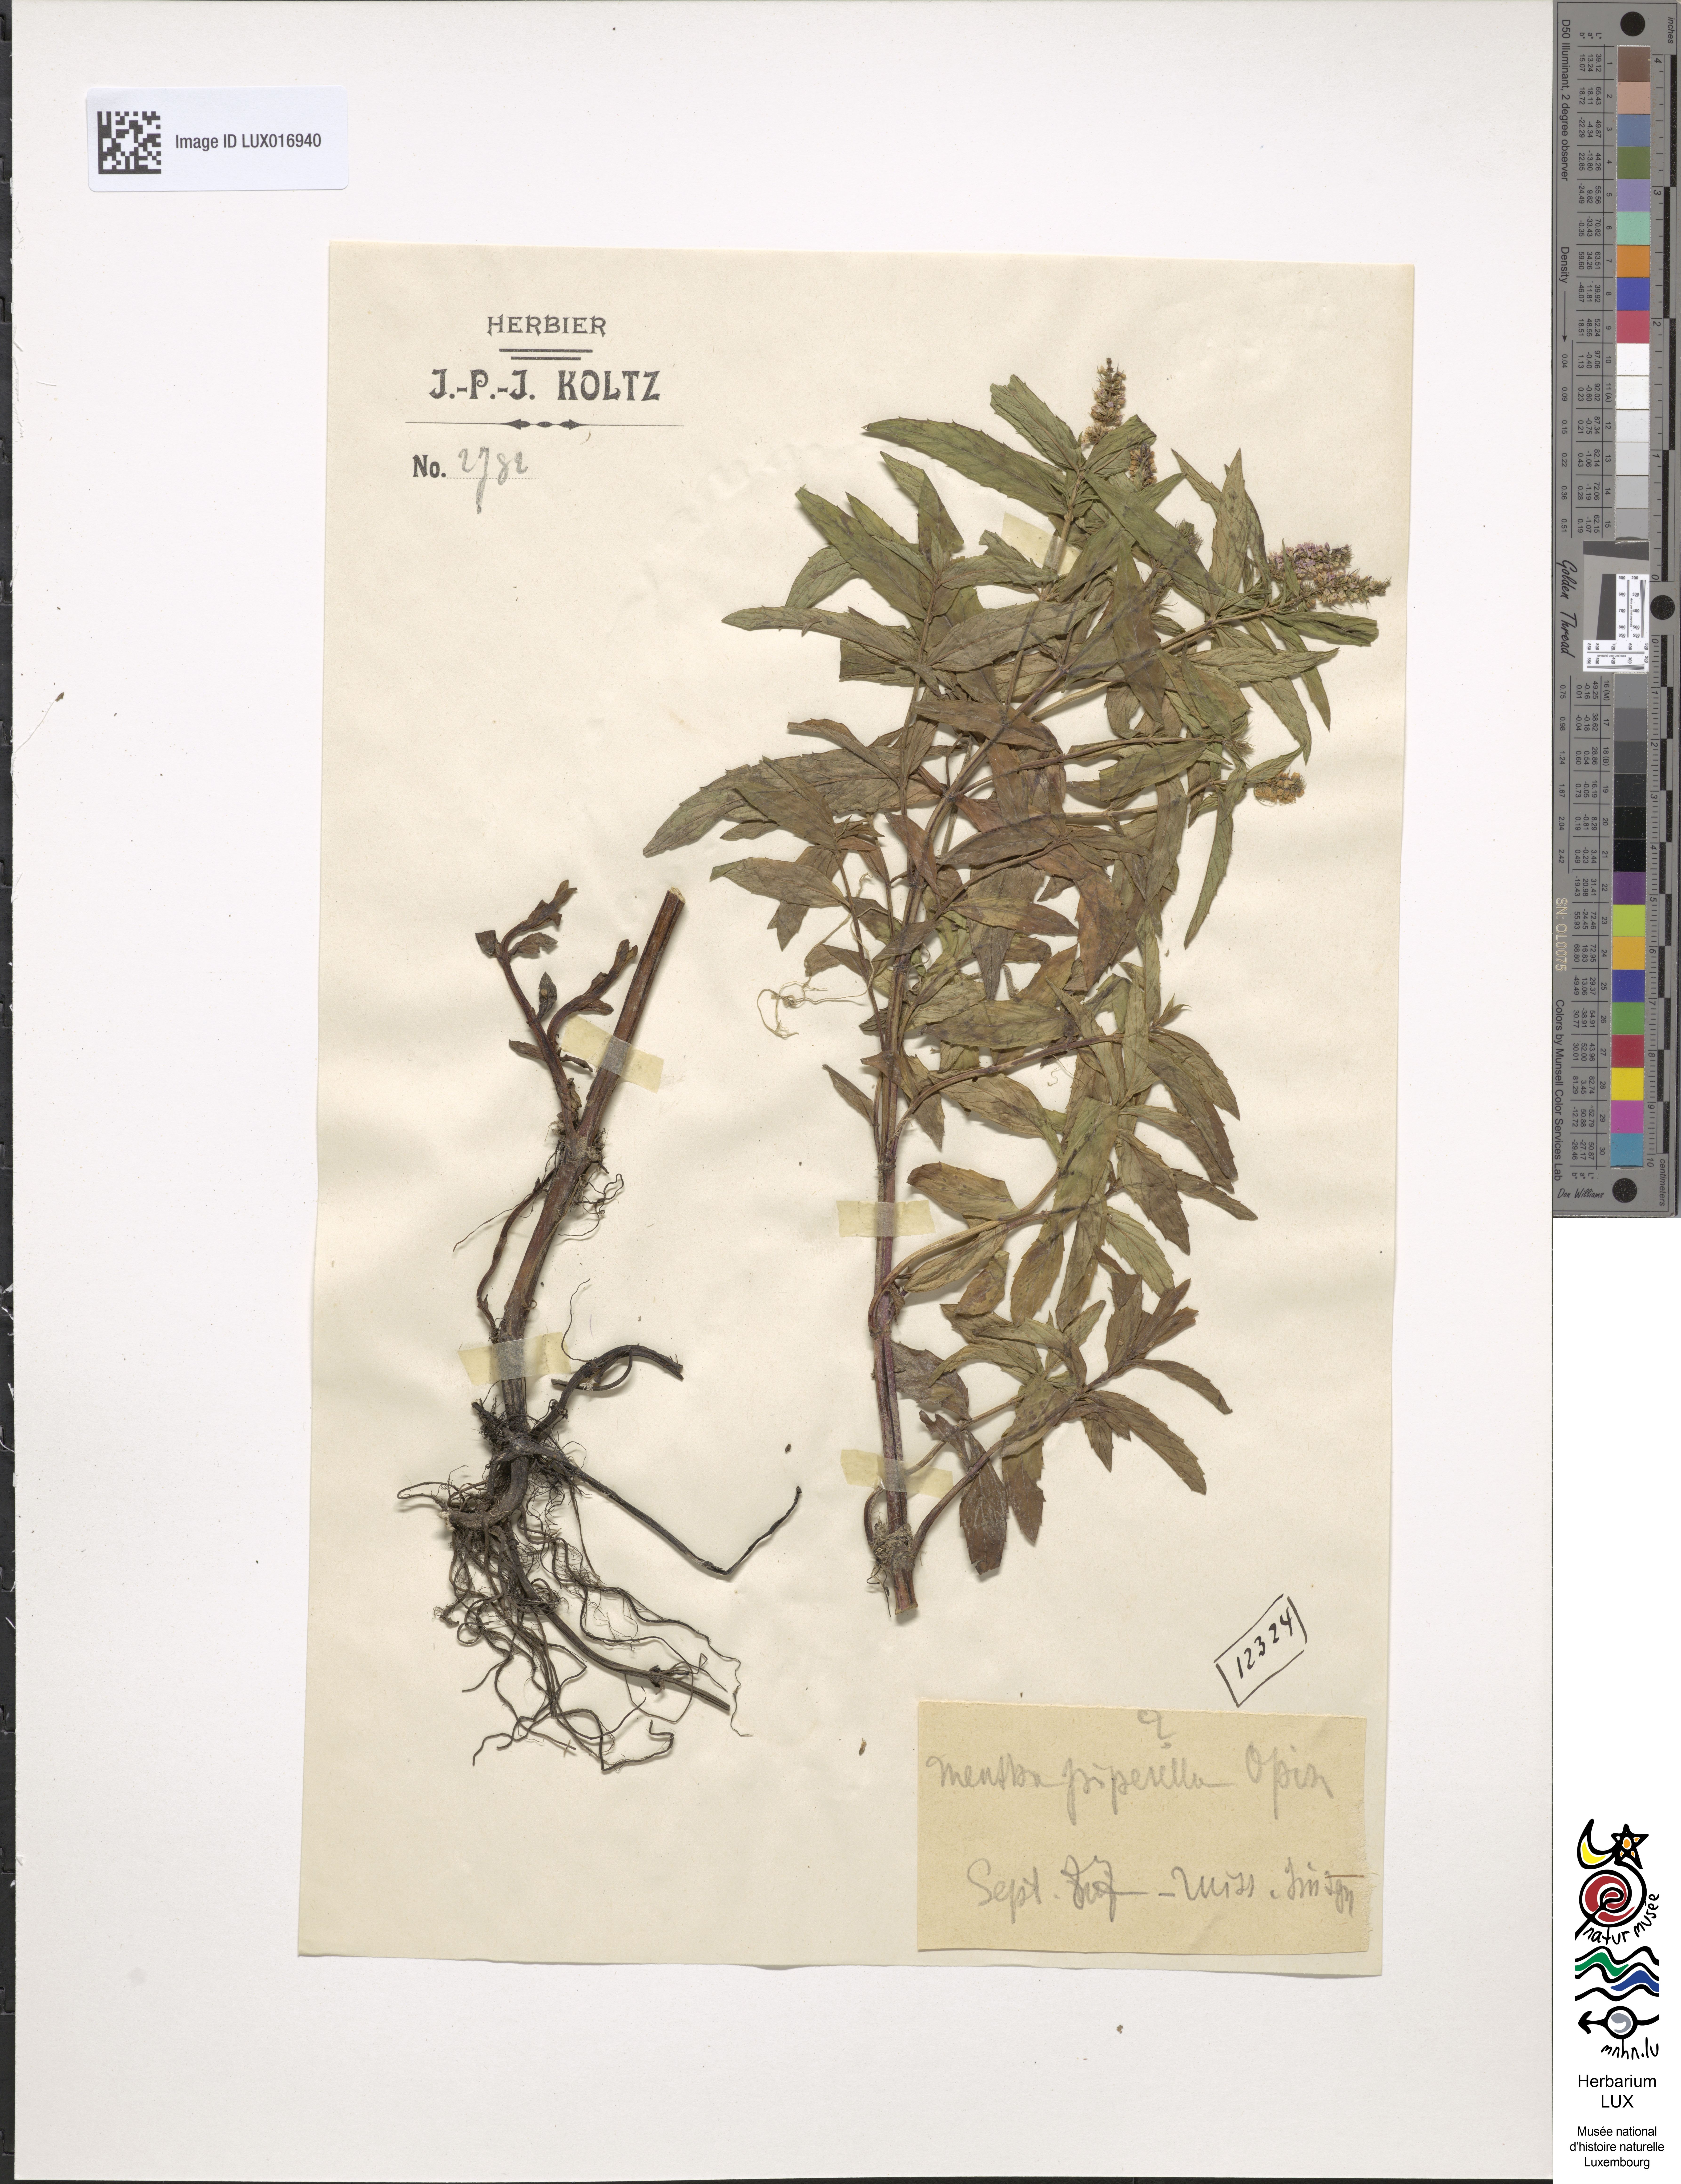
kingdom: Plantae
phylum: Tracheophyta
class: Magnoliopsida
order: Lamiales
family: Lamiaceae
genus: Mentha
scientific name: Mentha spicata
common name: Spearmint
